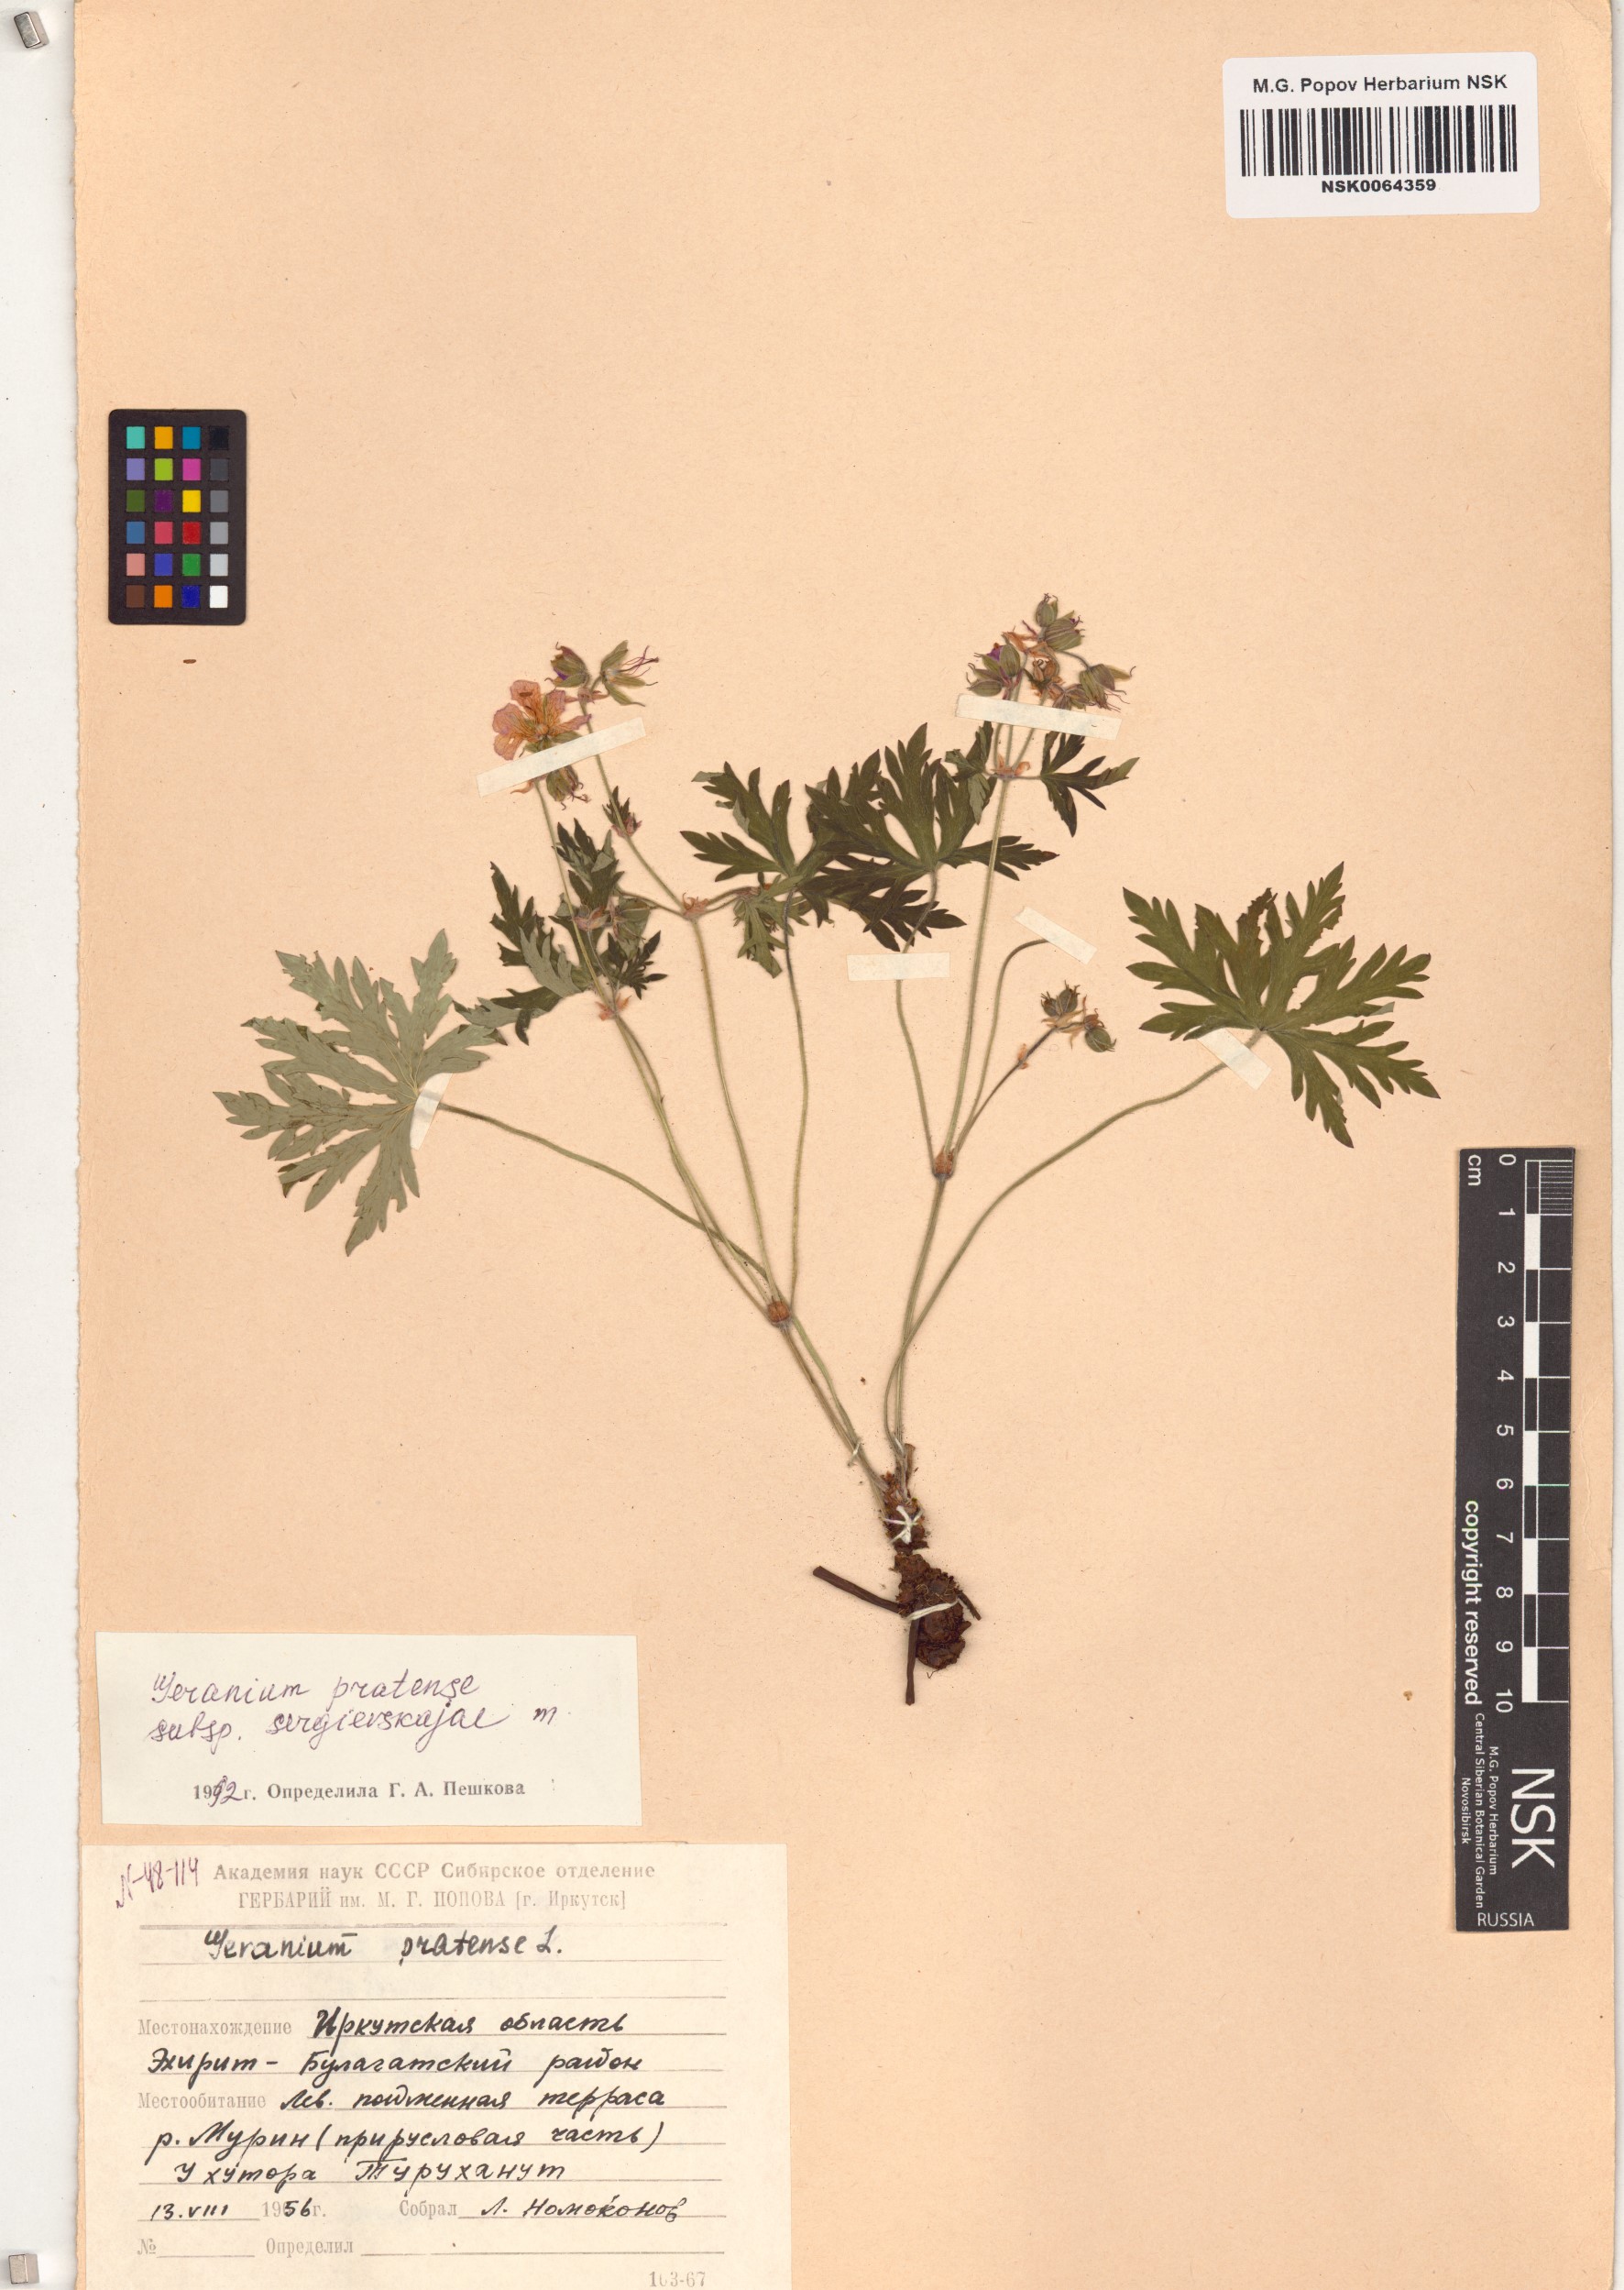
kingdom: Plantae
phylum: Tracheophyta
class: Magnoliopsida
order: Geraniales
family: Geraniaceae
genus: Geranium
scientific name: Geranium pratense
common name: Meadow crane's-bill
